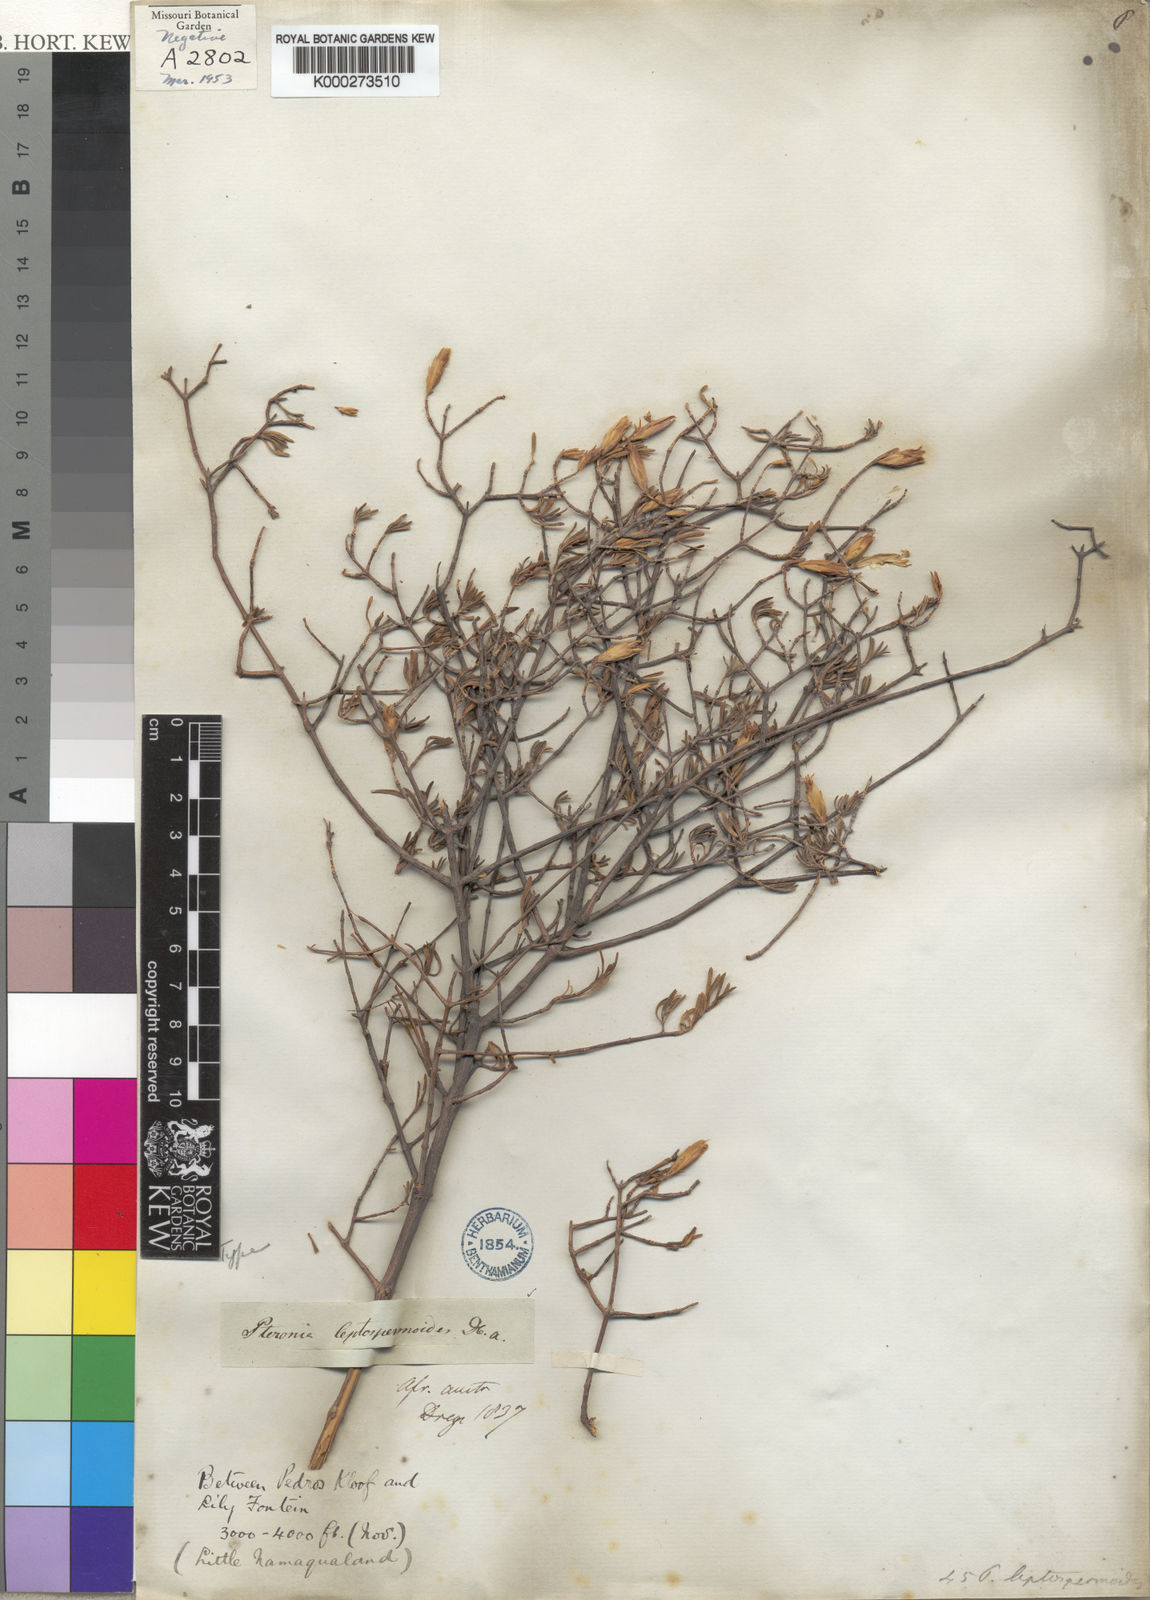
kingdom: Plantae
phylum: Tracheophyta
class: Magnoliopsida
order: Asterales
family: Asteraceae
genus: Pteronia
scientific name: Pteronia leptospermoides
